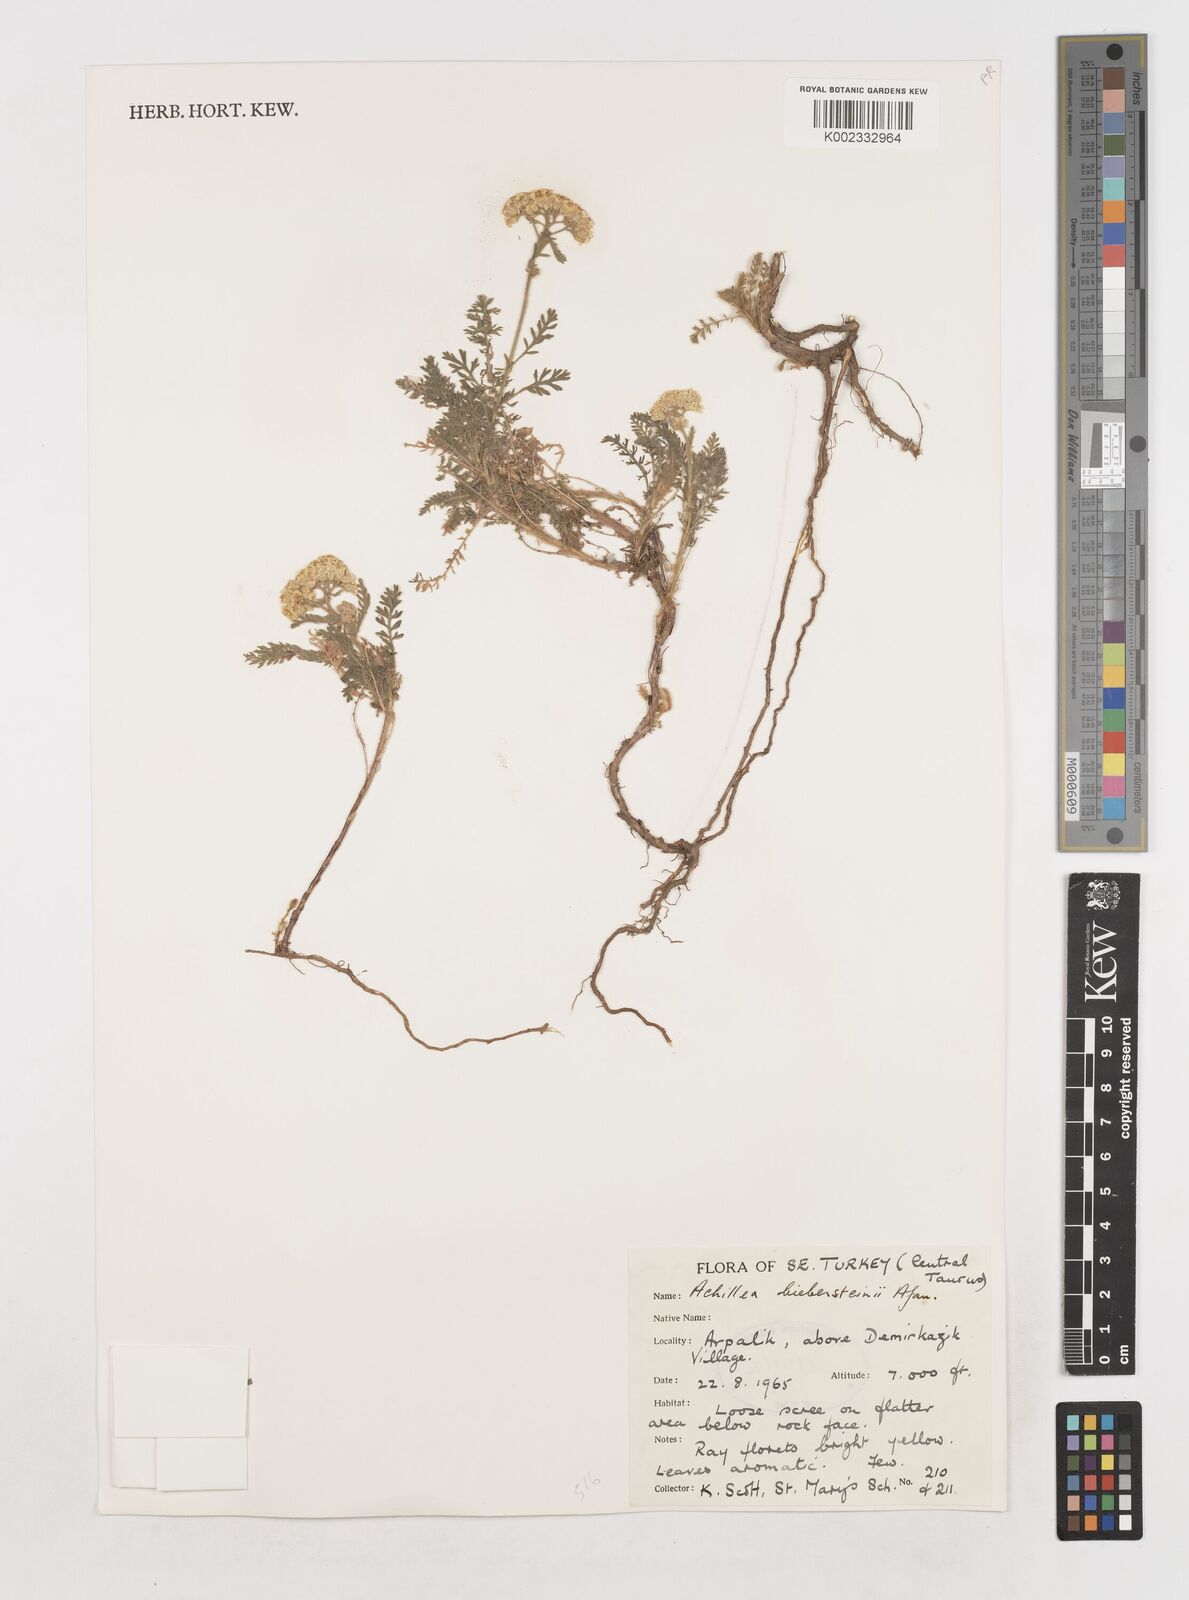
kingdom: Plantae
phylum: Tracheophyta
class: Magnoliopsida
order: Asterales
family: Asteraceae
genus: Achillea
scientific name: Achillea arabica
